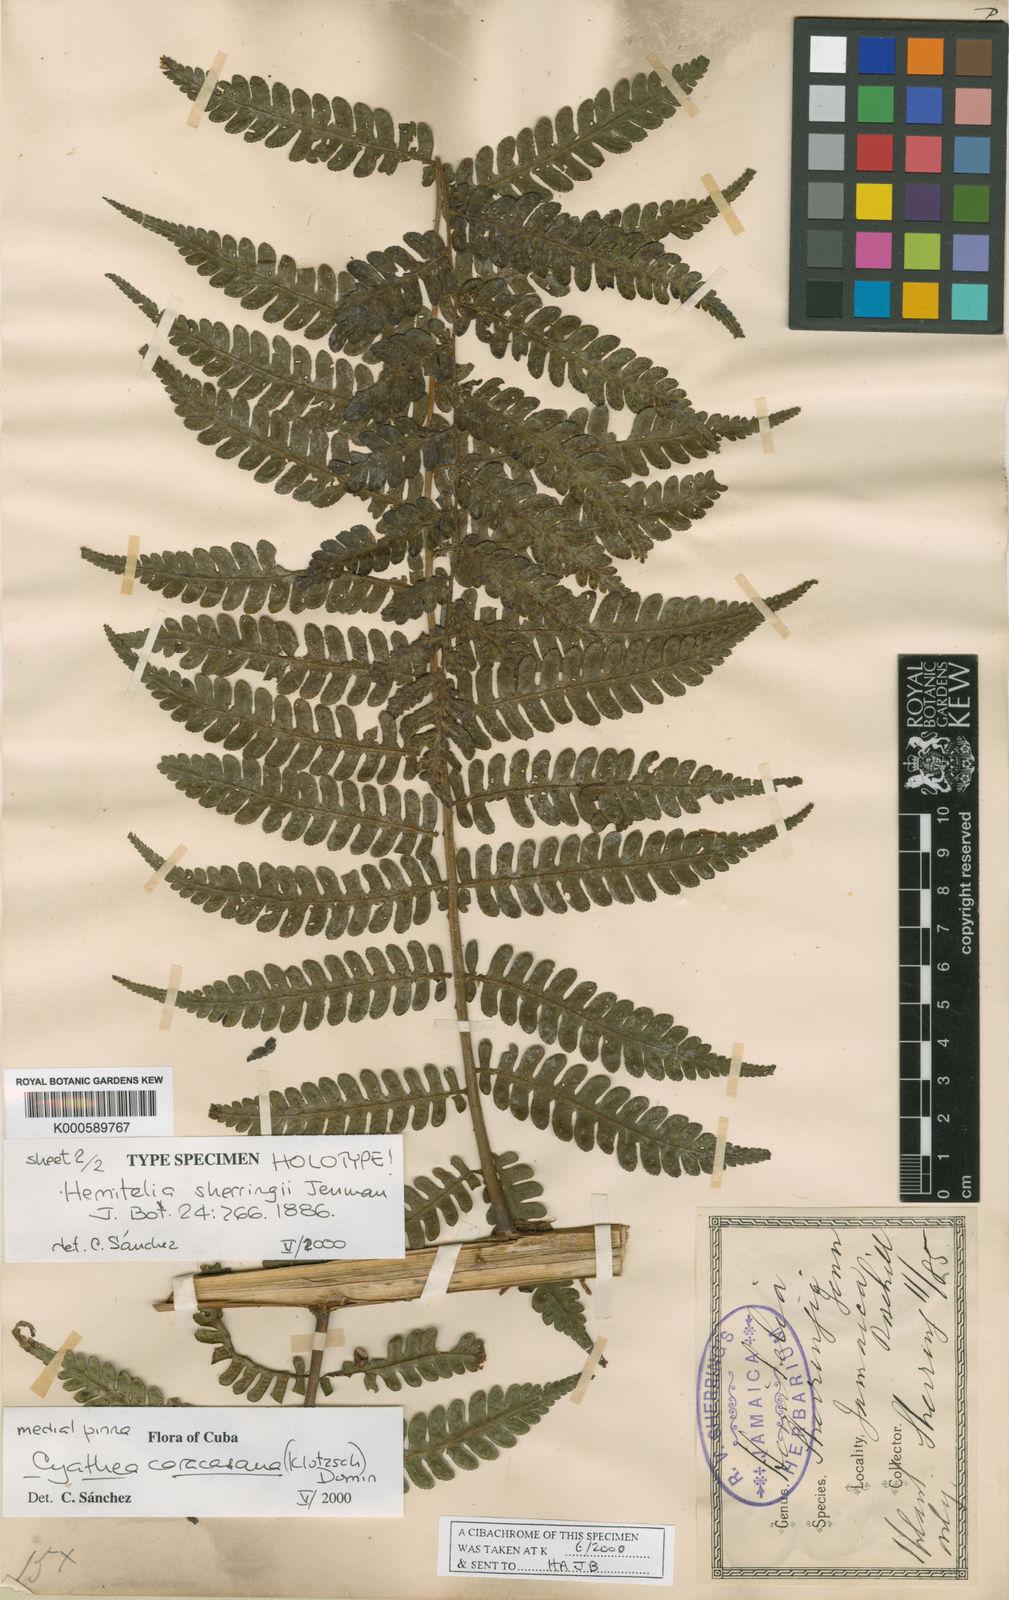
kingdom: Plantae
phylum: Tracheophyta
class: Polypodiopsida
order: Cyatheales
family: Cyatheaceae
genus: Cyathea
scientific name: Cyathea caracasana
